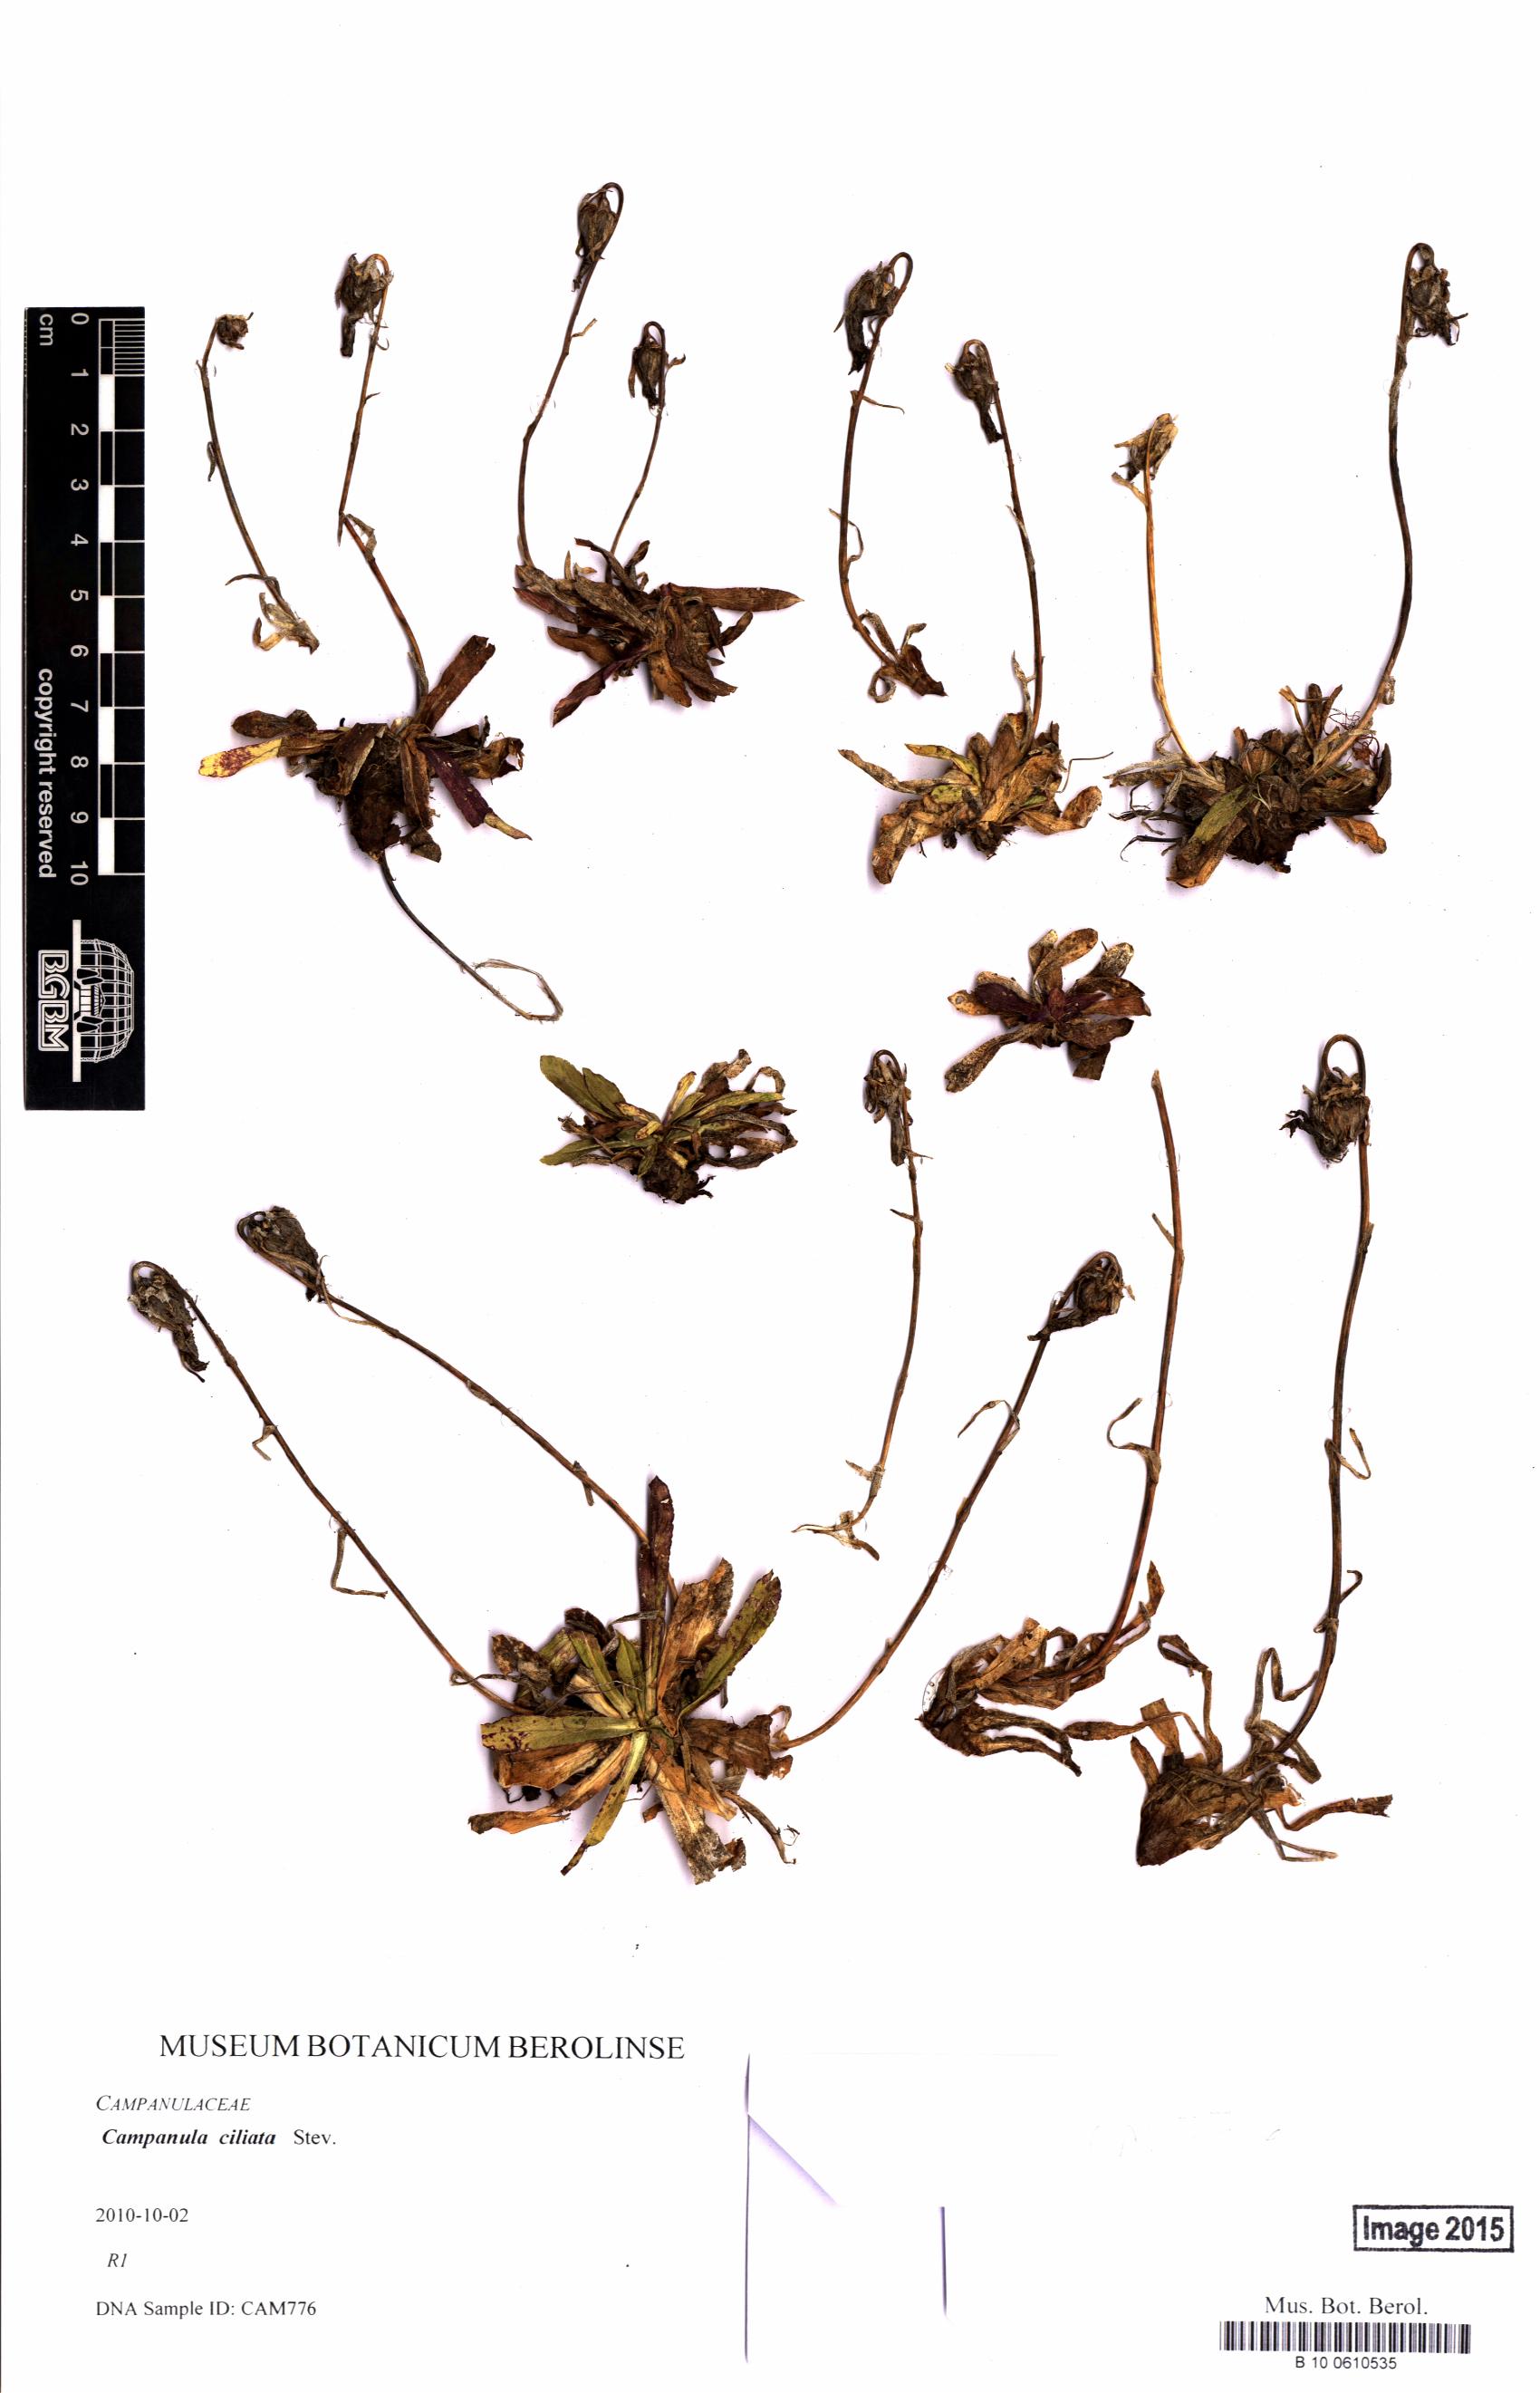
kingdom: Plantae
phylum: Tracheophyta
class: Magnoliopsida
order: Asterales
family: Campanulaceae
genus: Campanula
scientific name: Campanula ciliata
